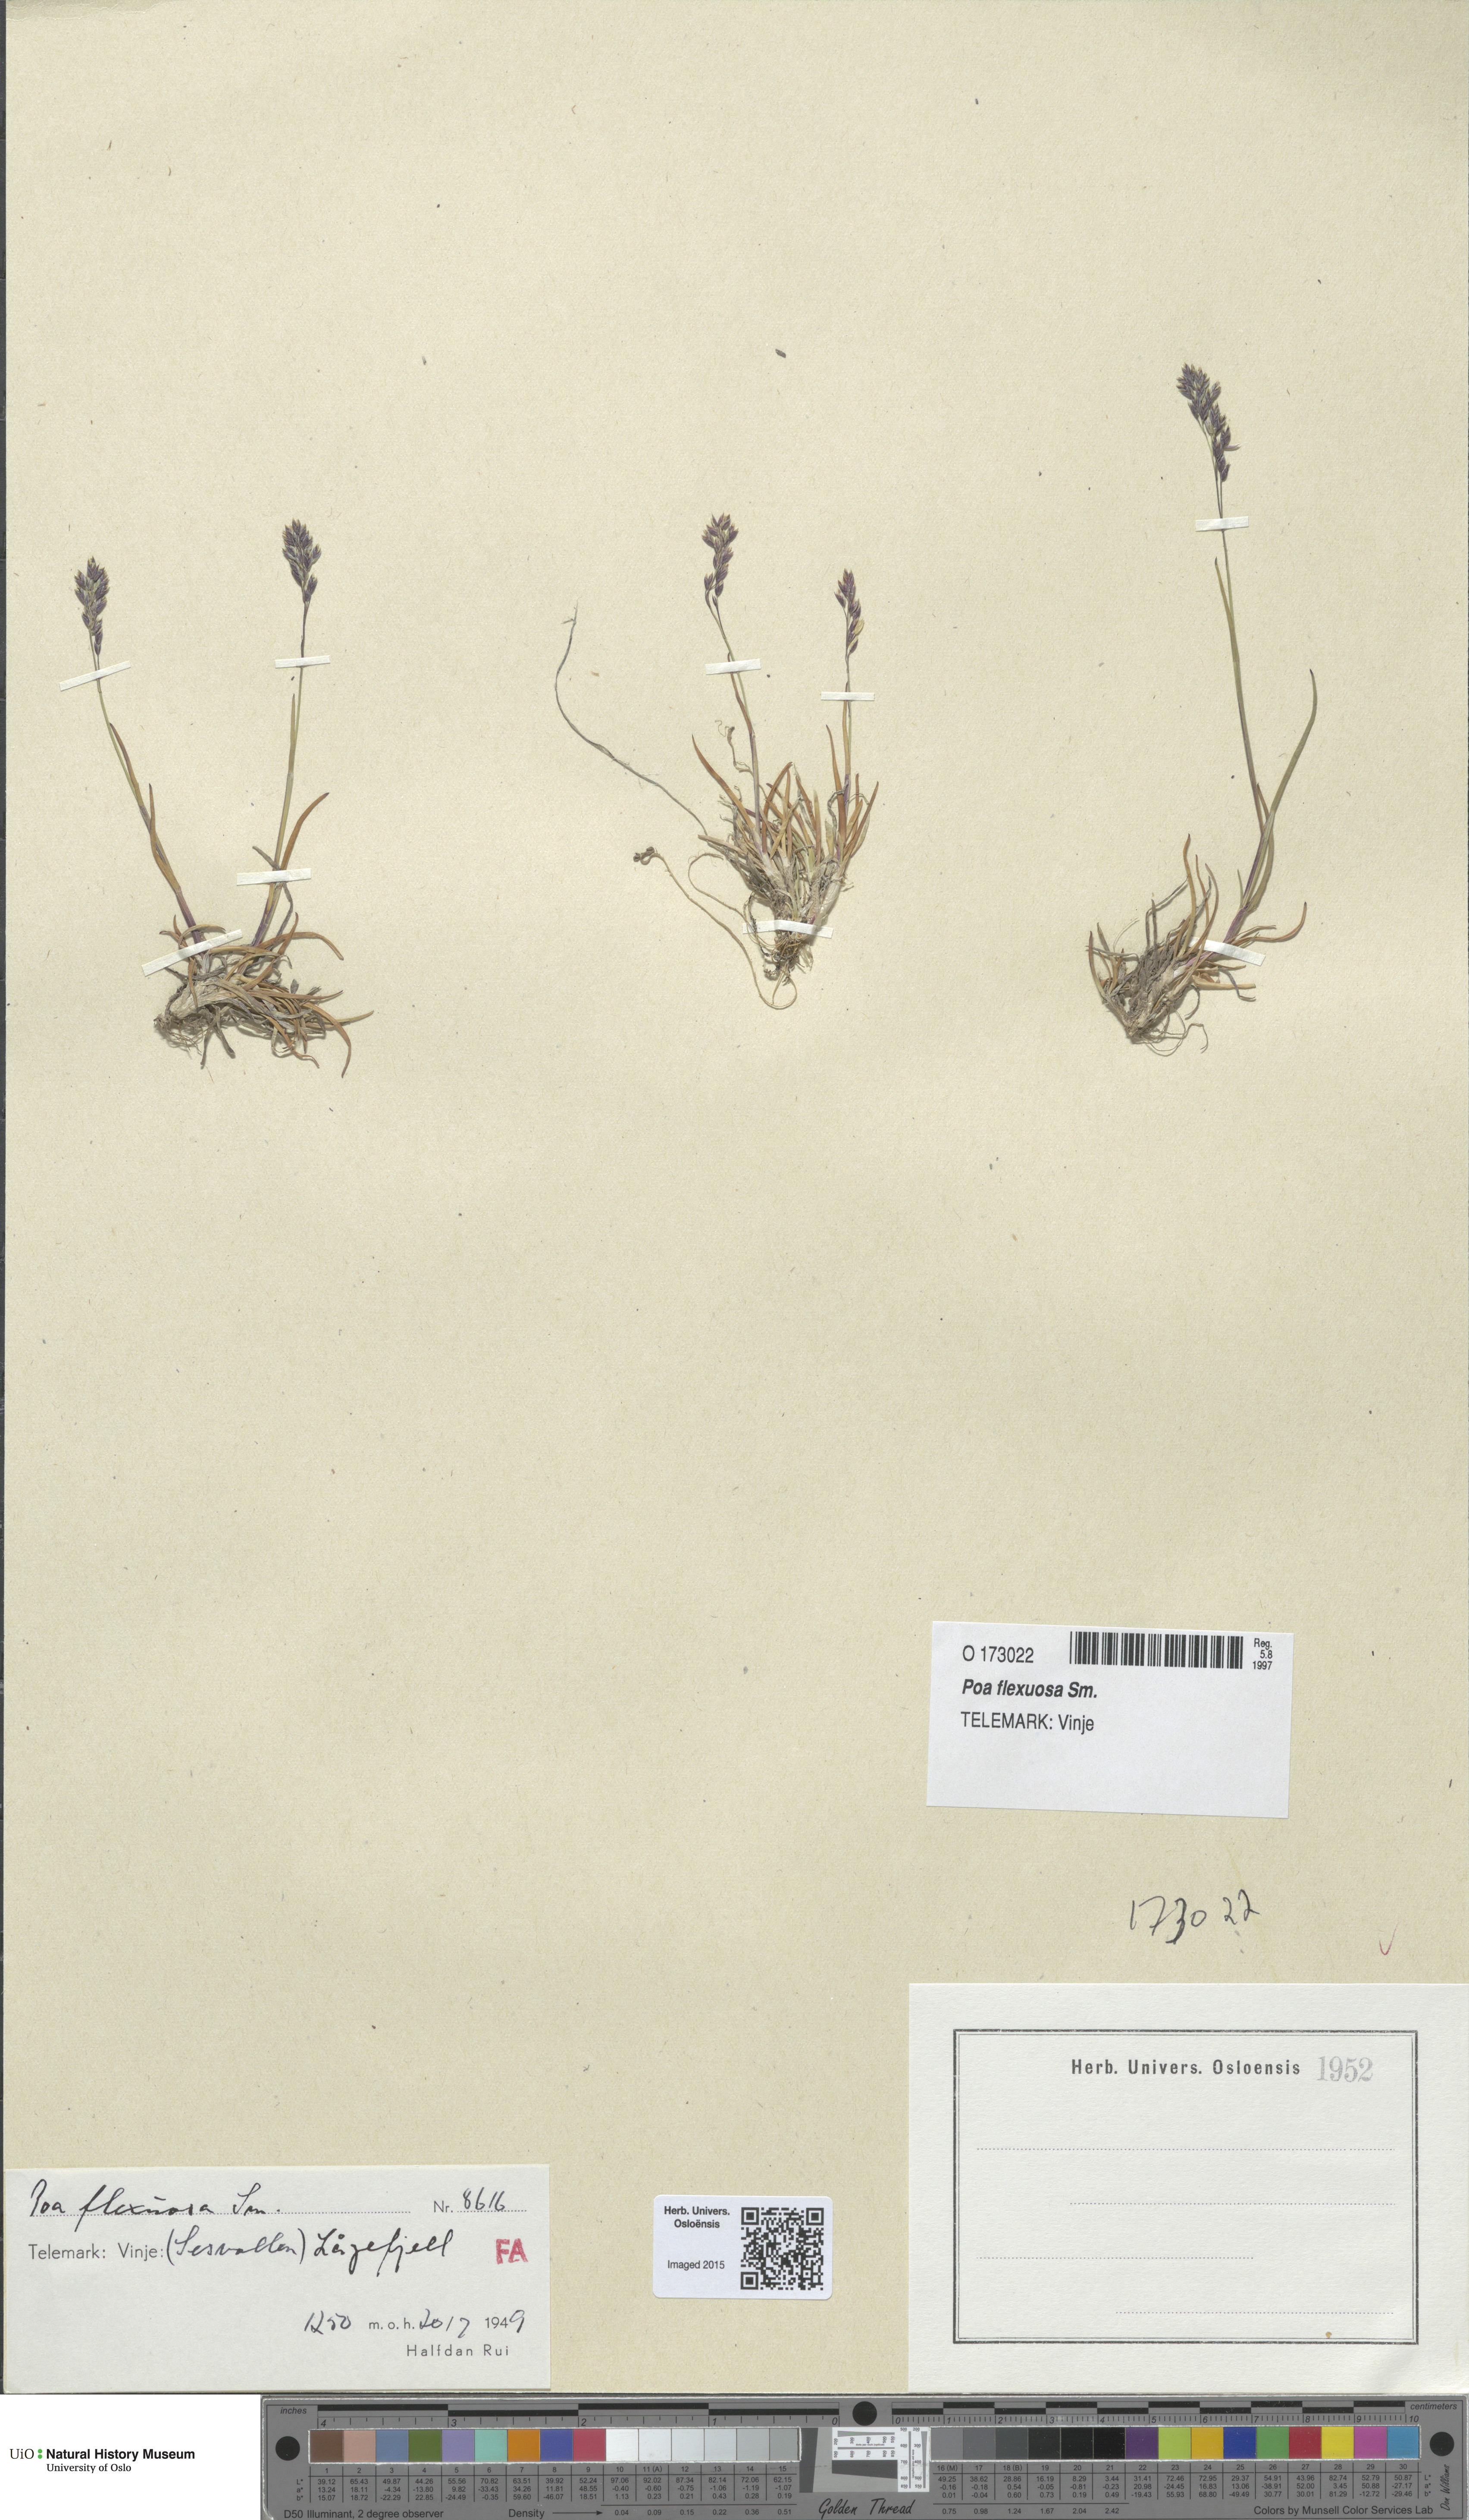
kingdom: Plantae
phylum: Tracheophyta
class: Liliopsida
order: Poales
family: Poaceae
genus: Poa
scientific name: Poa flexuosa
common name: Wavy meadow-grass
